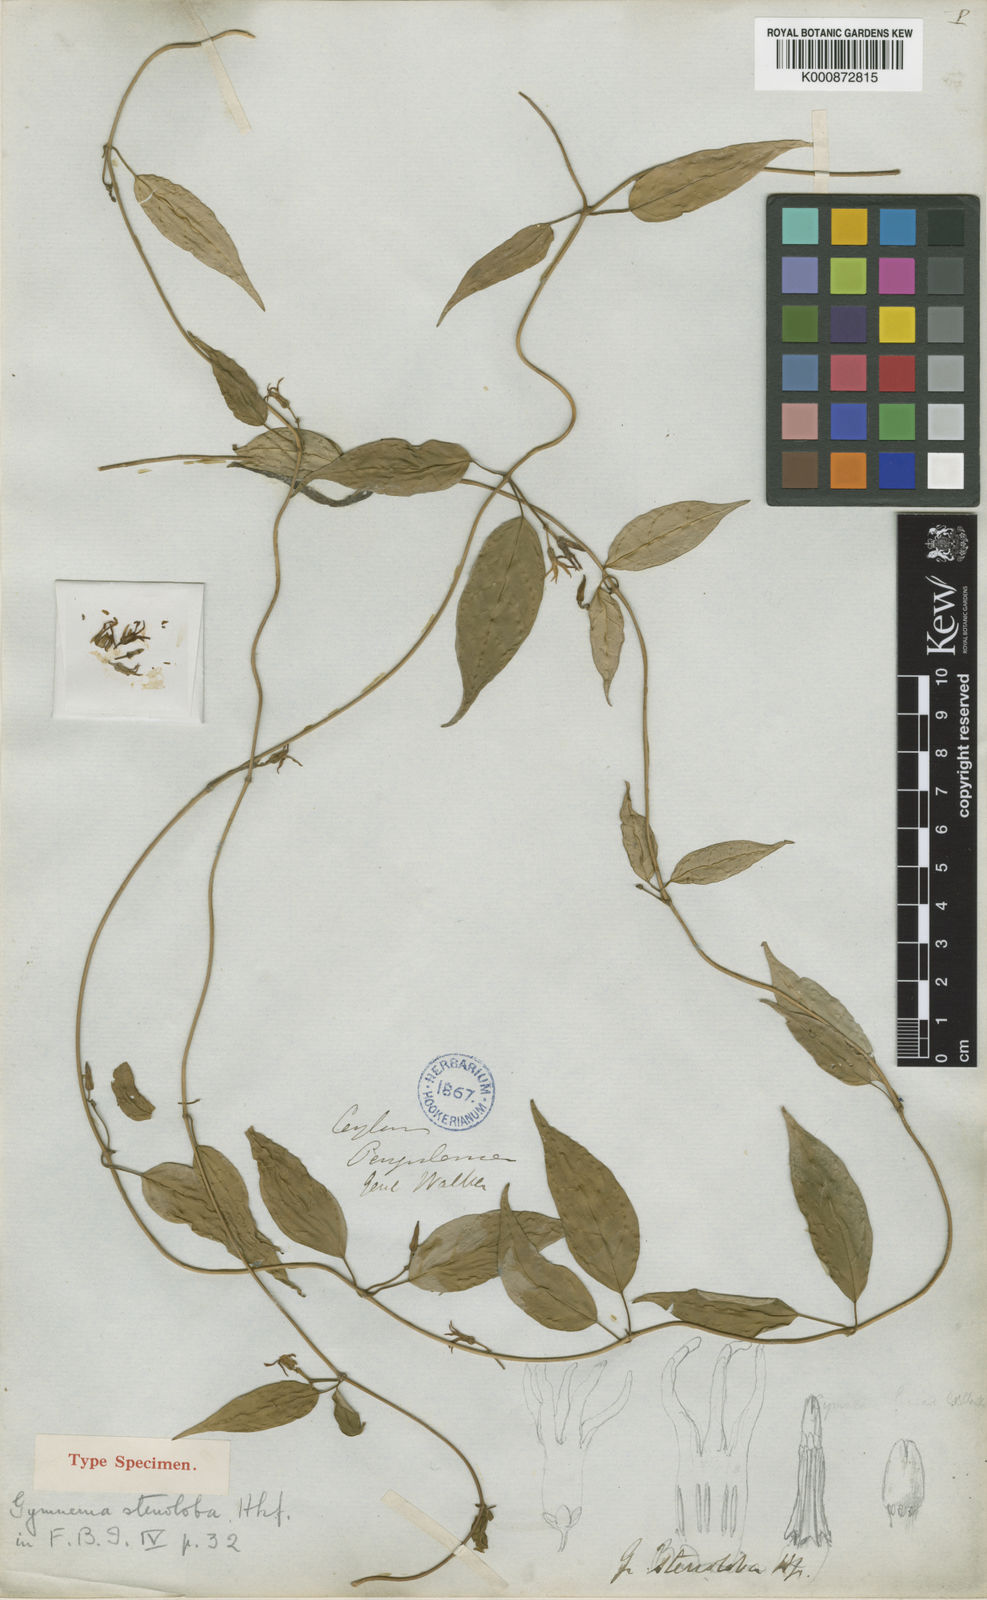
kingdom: Plantae
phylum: Tracheophyta
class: Magnoliopsida
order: Gentianales
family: Apocynaceae
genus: Gymnema
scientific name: Gymnema cuspidatum
